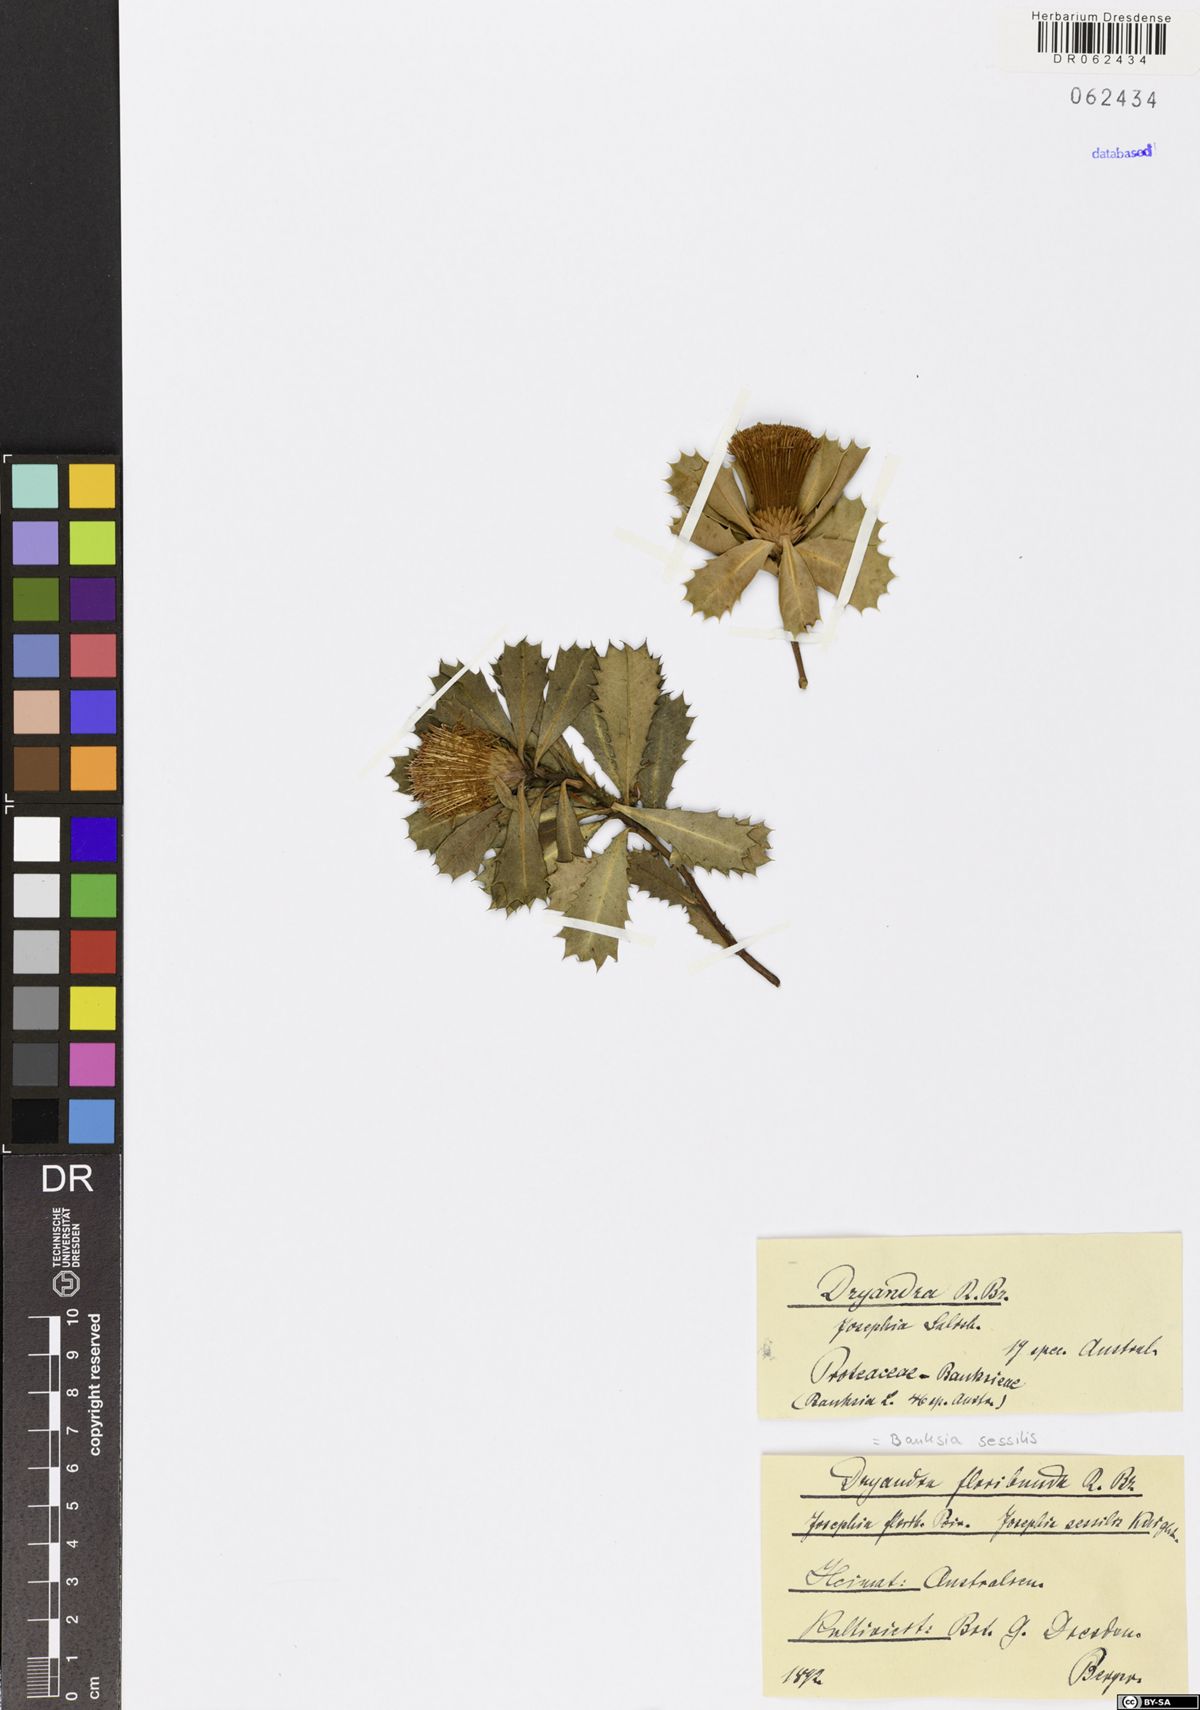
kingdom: Plantae
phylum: Tracheophyta
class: Magnoliopsida
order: Proteales
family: Proteaceae
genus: Banksia
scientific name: Banksia sessilis
